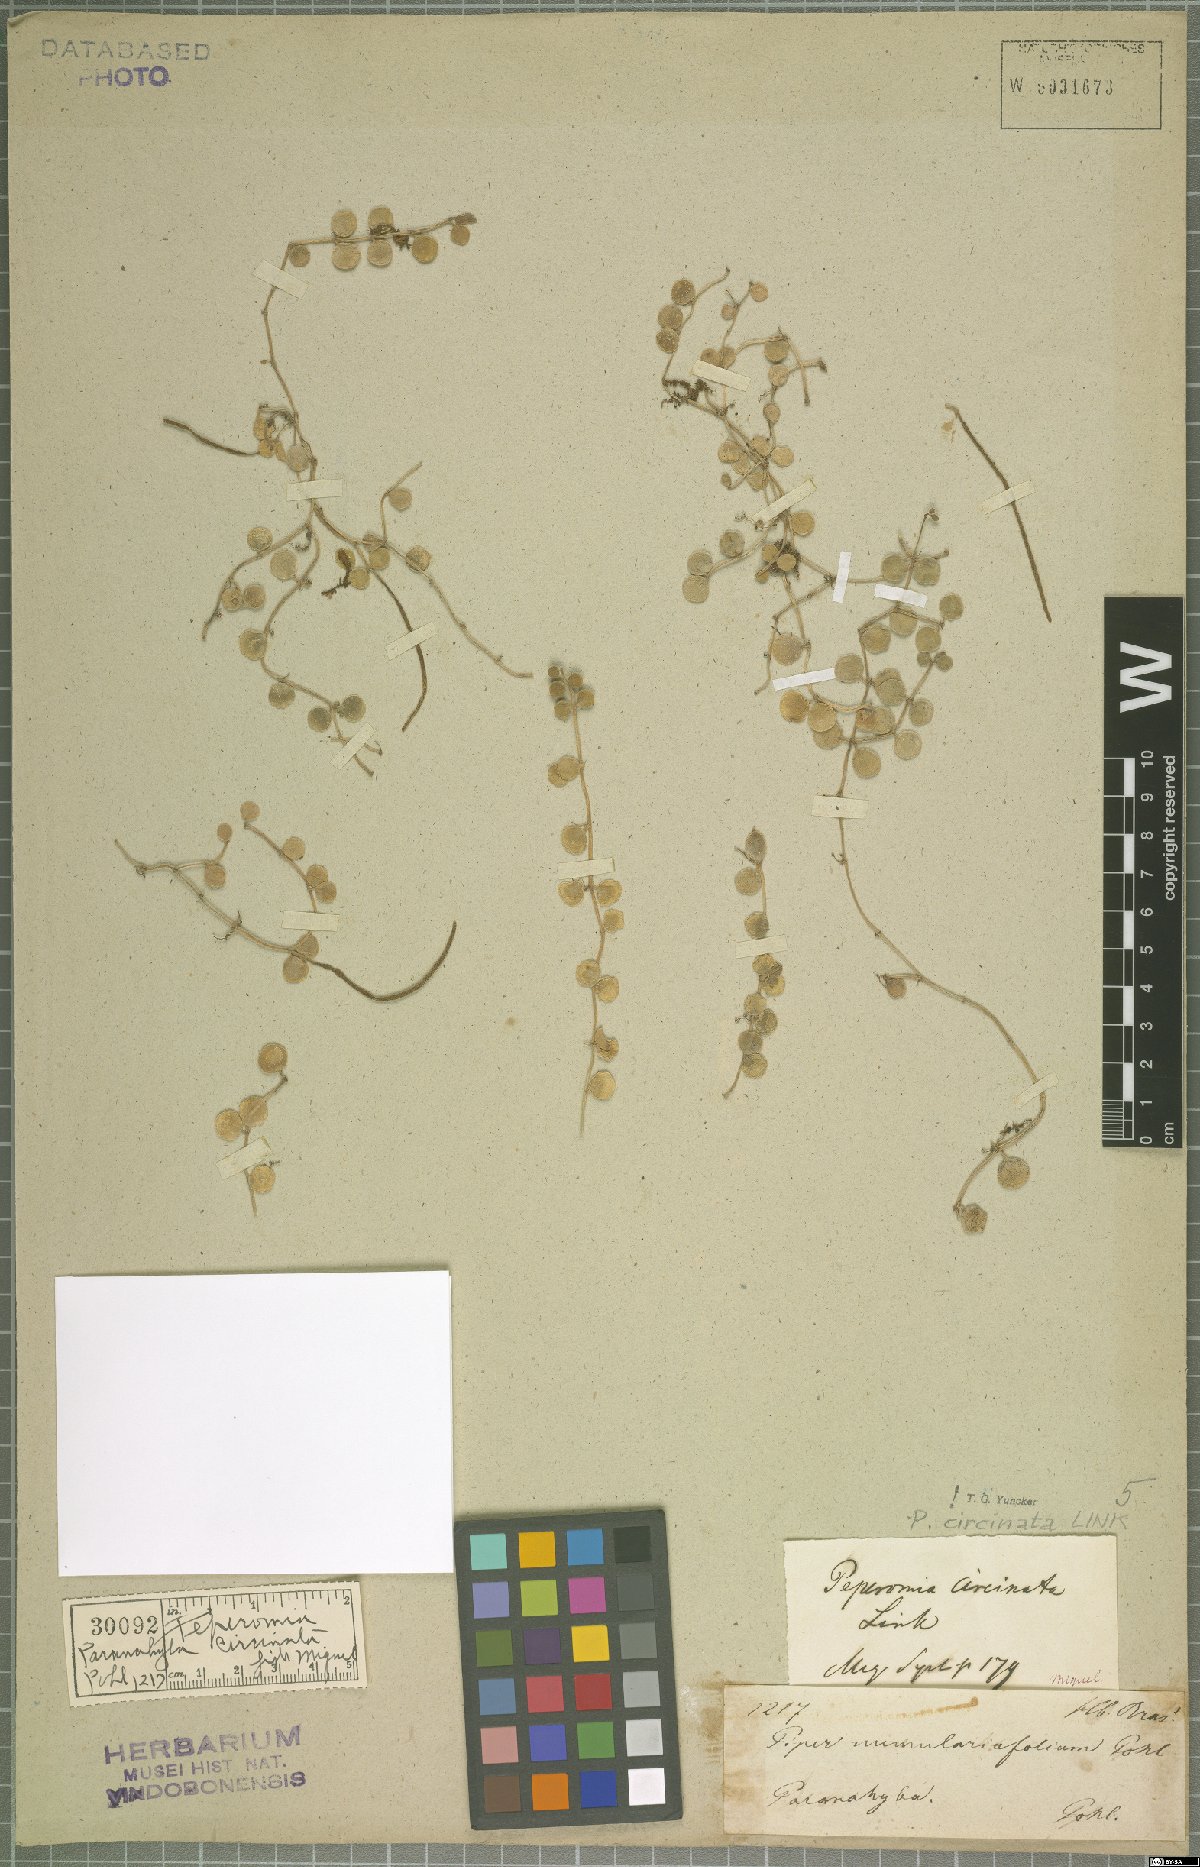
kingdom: Plantae
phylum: Tracheophyta
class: Magnoliopsida
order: Piperales
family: Piperaceae
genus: Peperomia
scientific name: Peperomia circinnata
